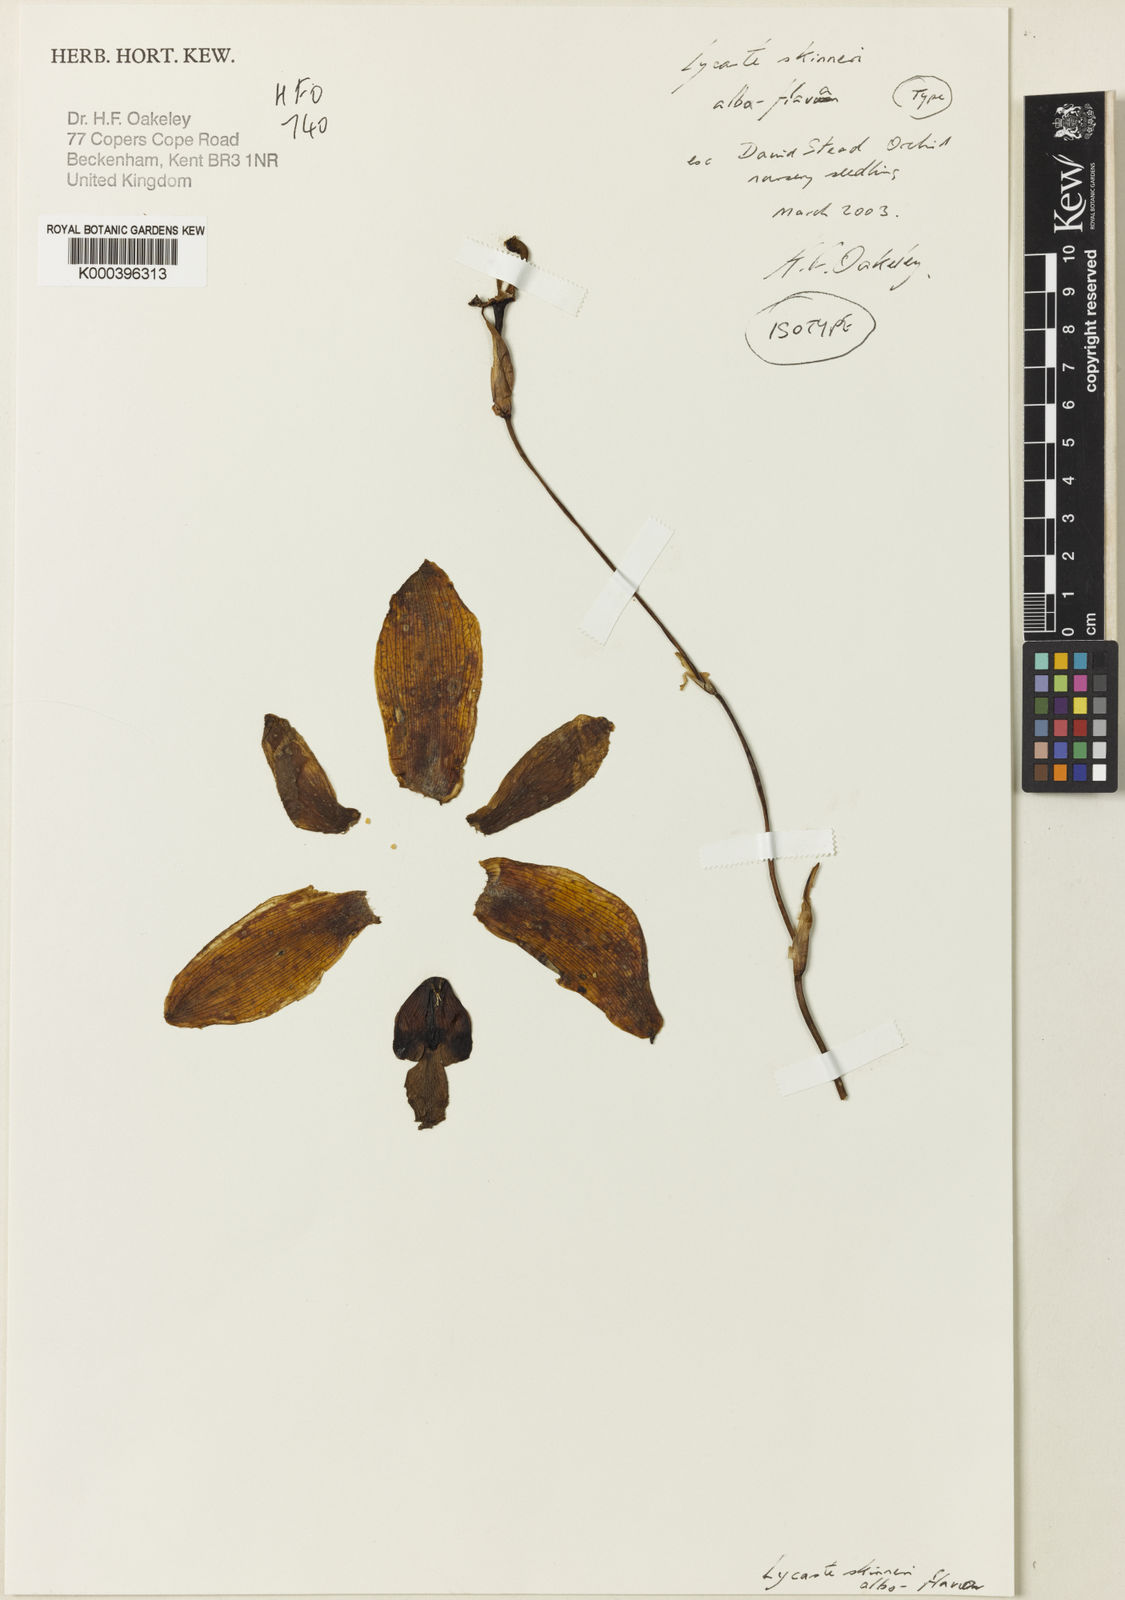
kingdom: Plantae
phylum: Tracheophyta
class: Liliopsida
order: Asparagales
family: Orchidaceae
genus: Lycaste
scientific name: Lycaste virginalis
